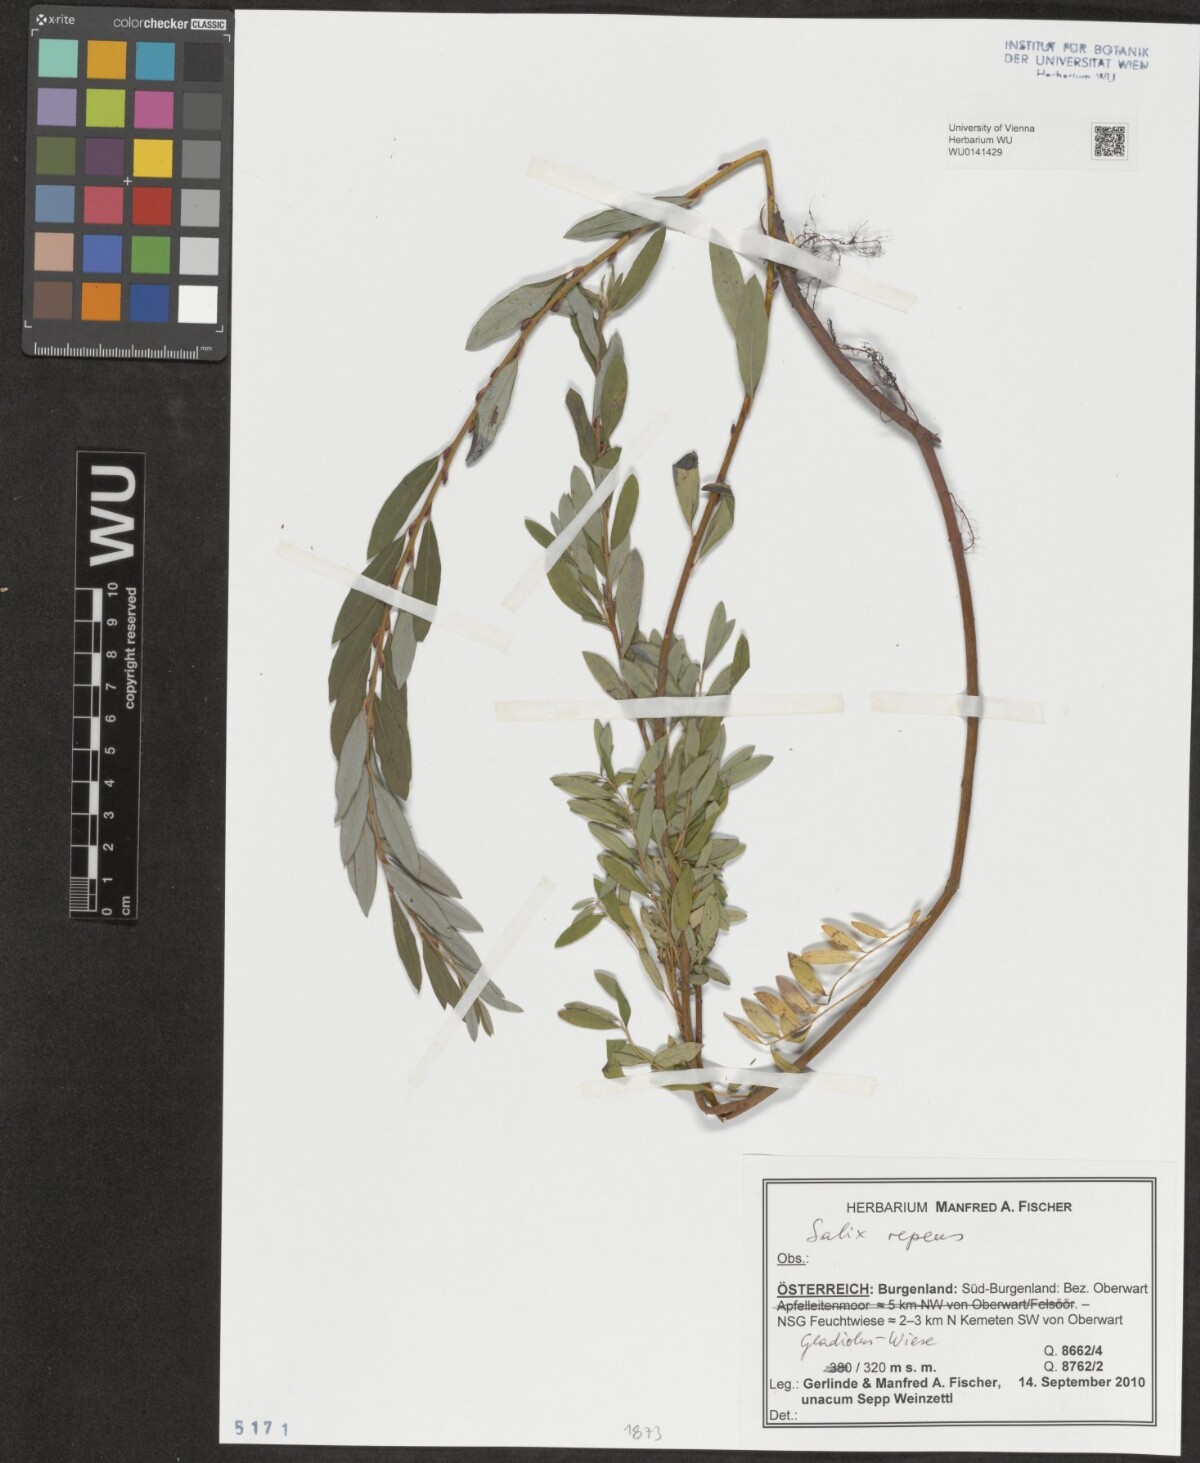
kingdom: Plantae
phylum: Tracheophyta
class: Magnoliopsida
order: Malpighiales
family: Salicaceae
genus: Salix
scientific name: Salix repens
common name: Creeping willow
